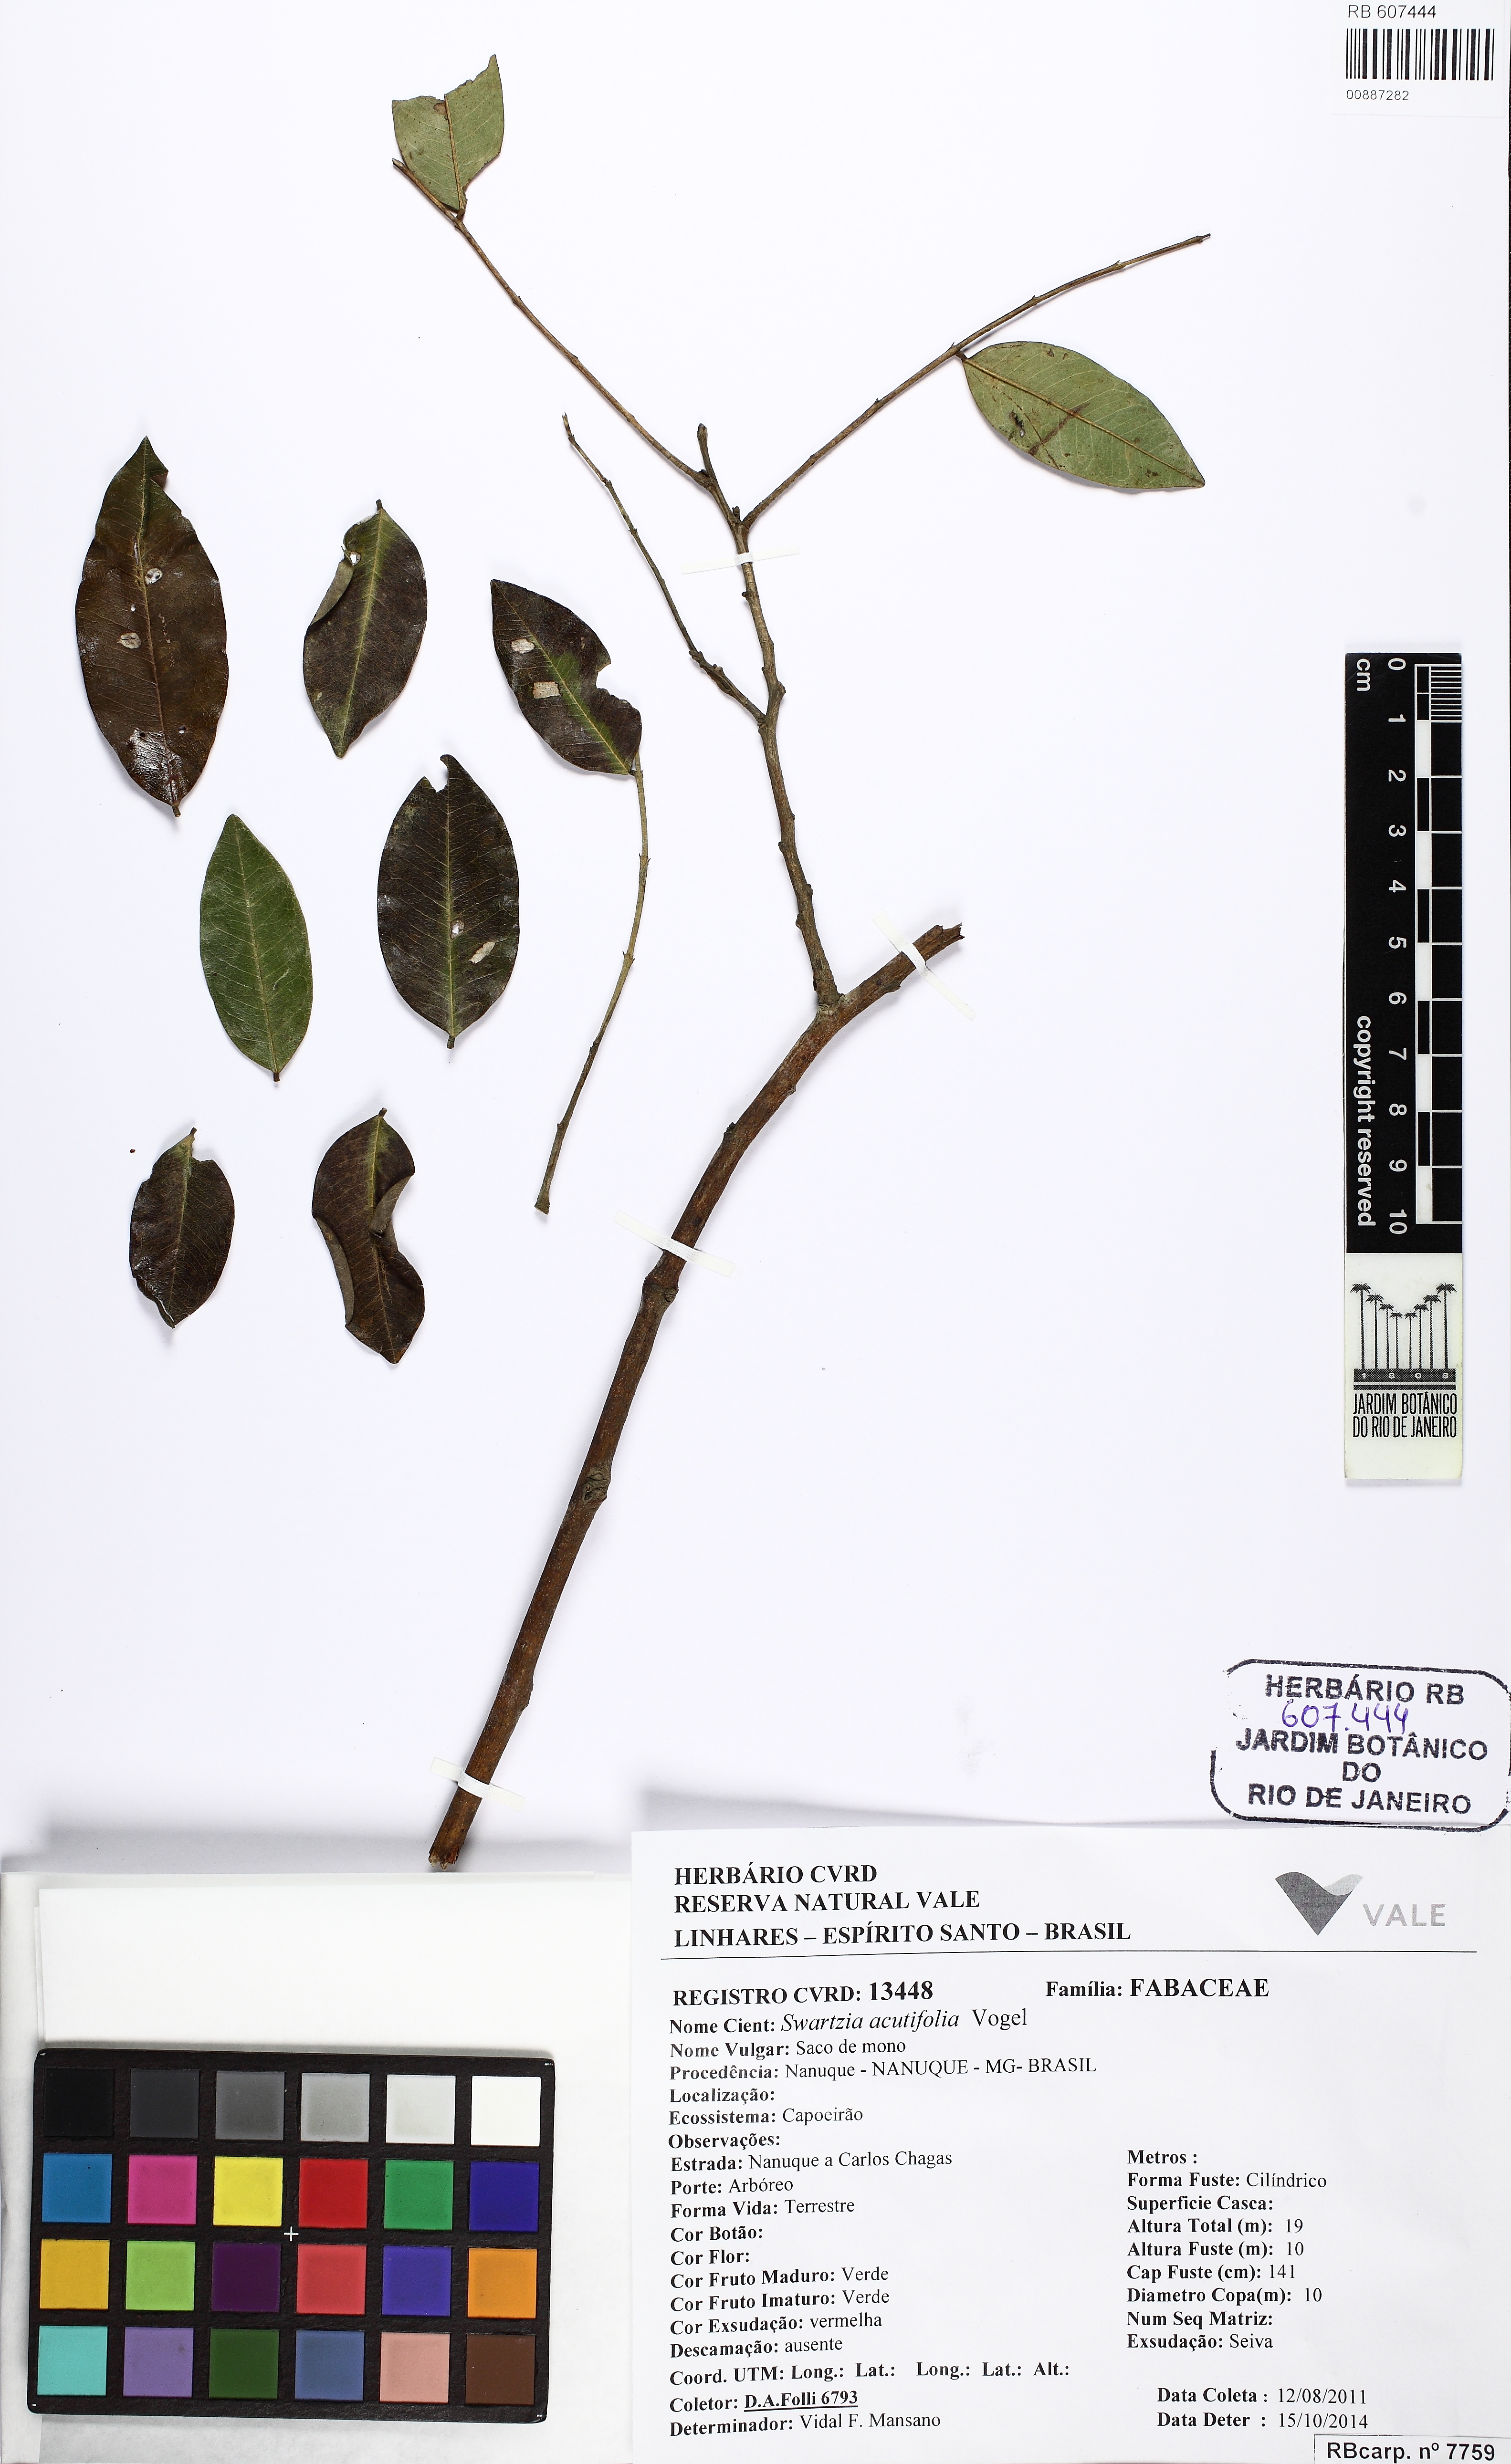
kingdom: Plantae
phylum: Tracheophyta
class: Magnoliopsida
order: Fabales
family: Fabaceae
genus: Swartzia
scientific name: Swartzia acutifolia
